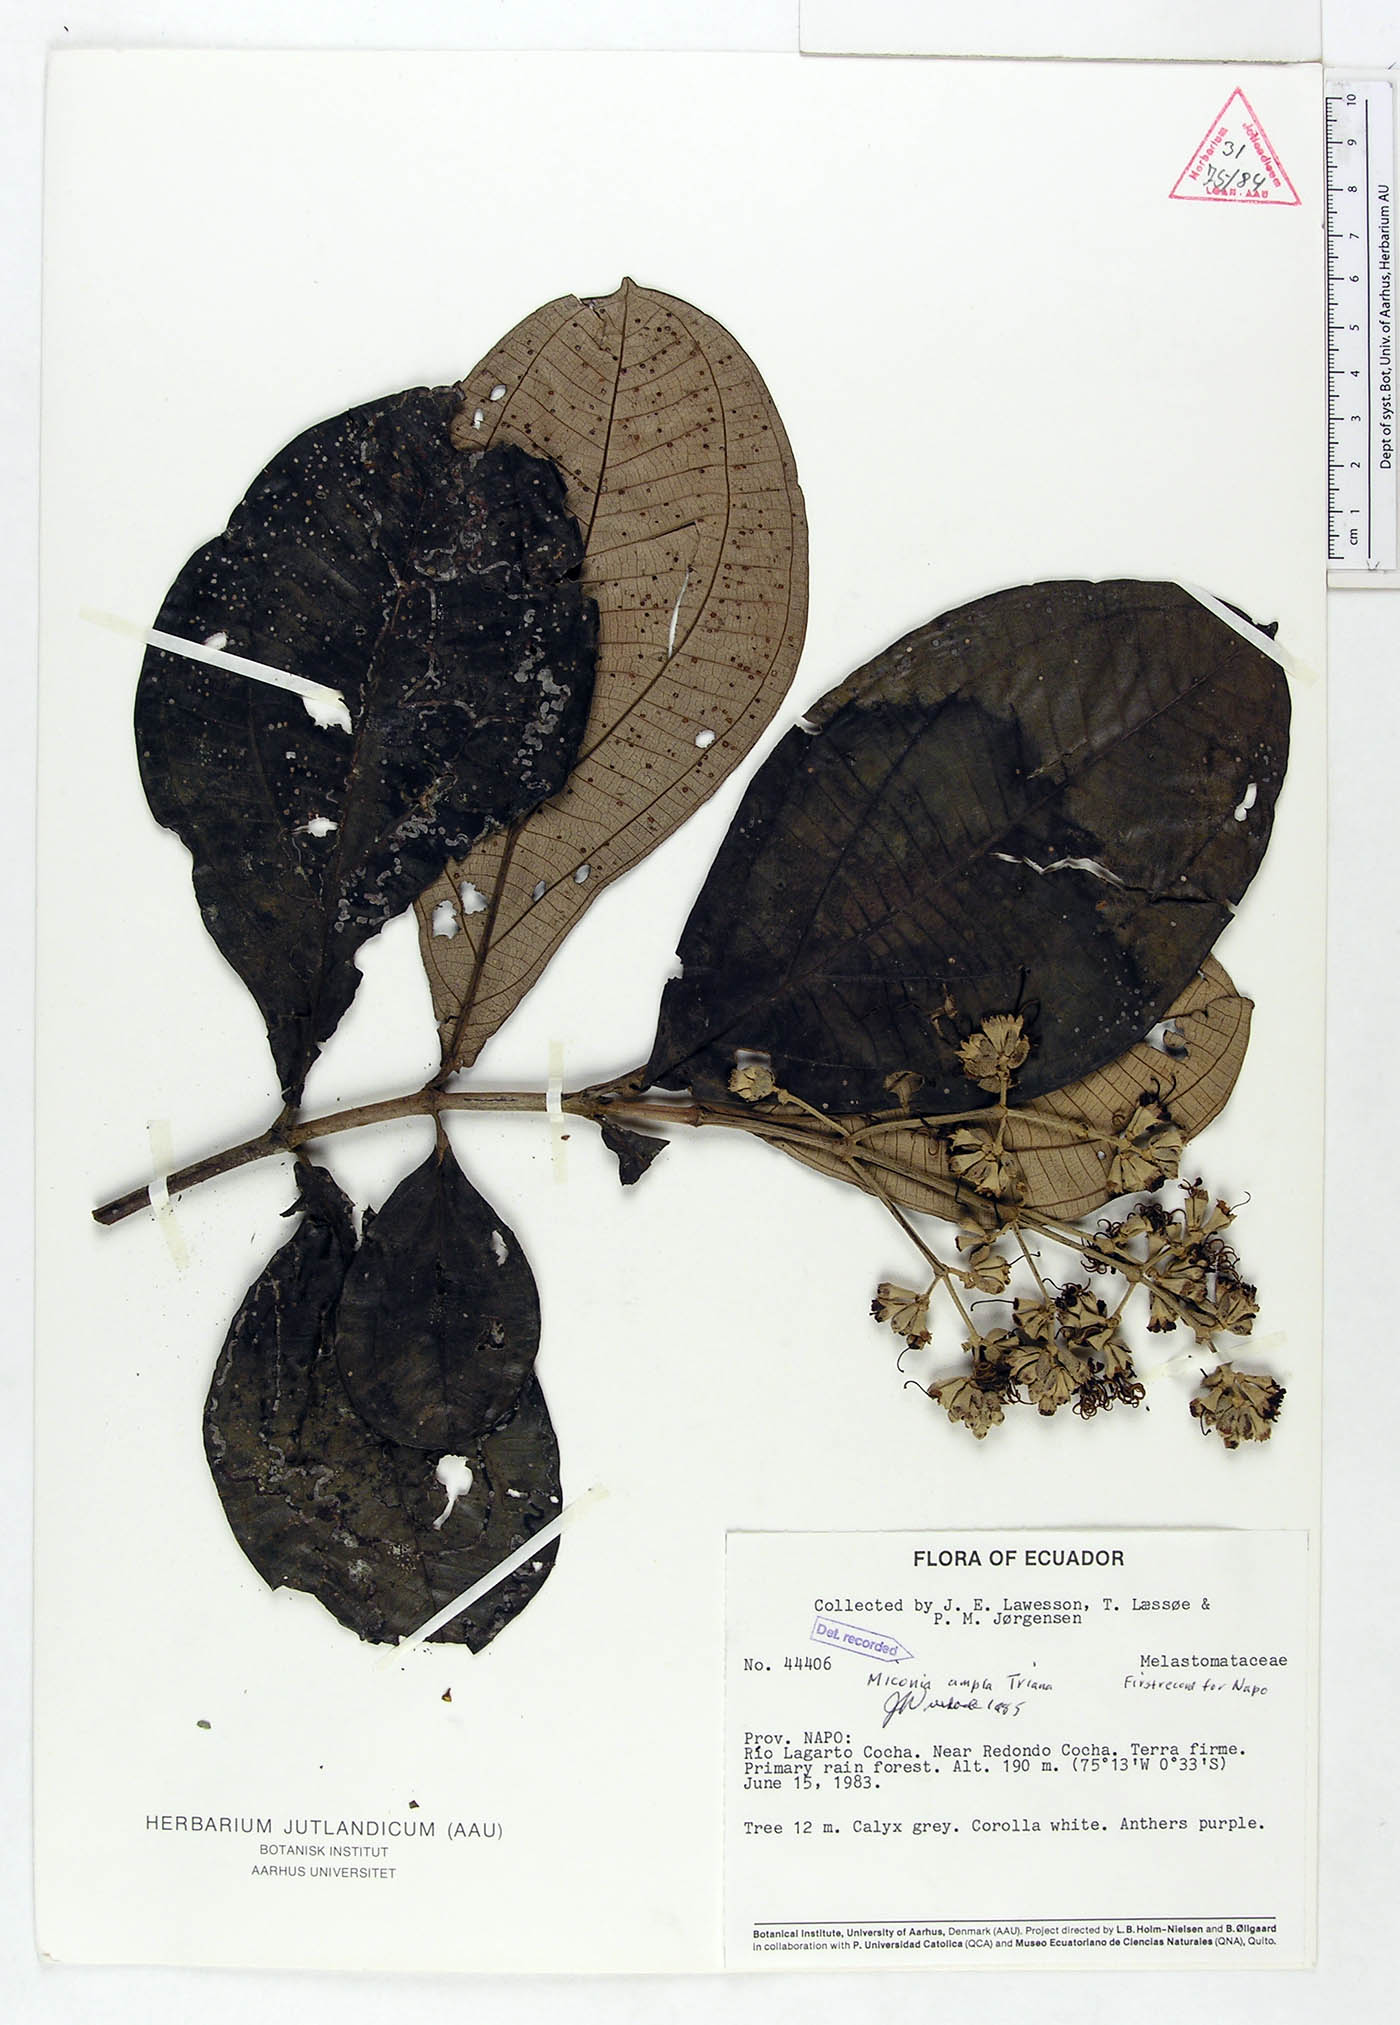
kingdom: Plantae
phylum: Tracheophyta
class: Magnoliopsida
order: Myrtales
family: Melastomataceae
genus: Miconia
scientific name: Miconia ampla
